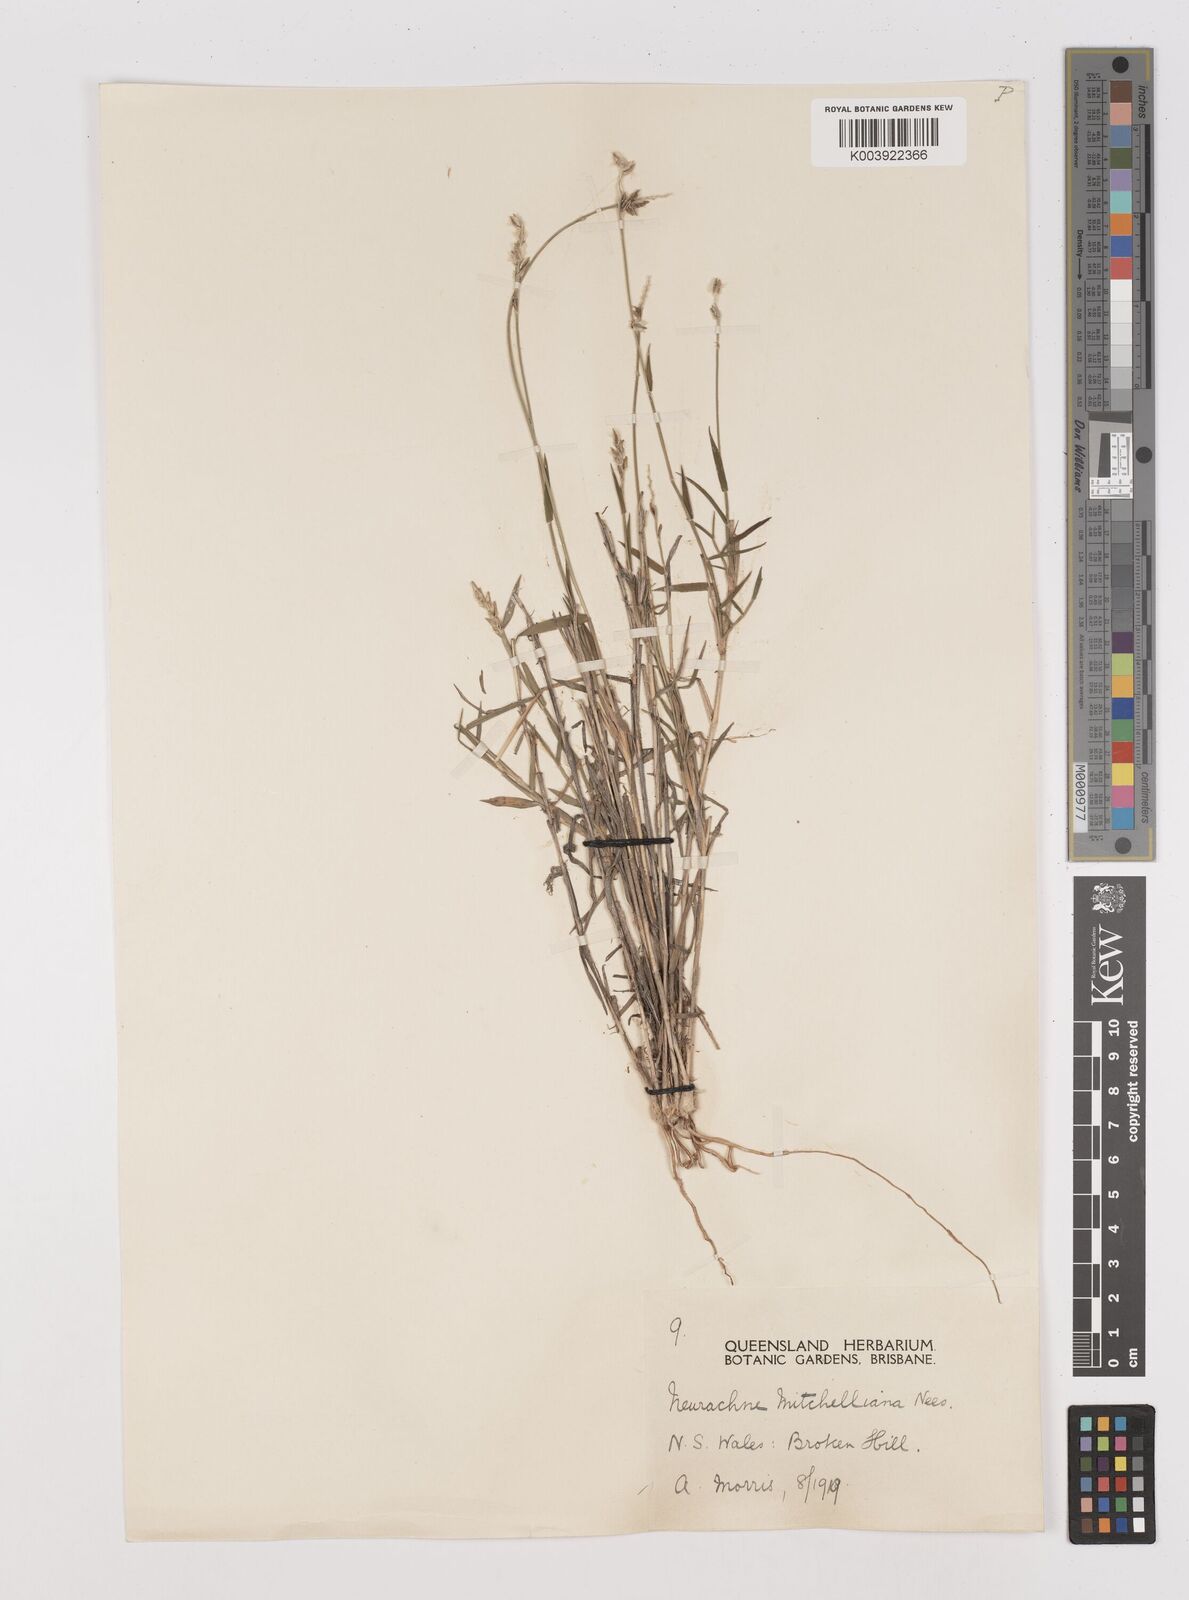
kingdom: Plantae
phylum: Tracheophyta
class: Liliopsida
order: Poales
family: Poaceae
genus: Thyridolepis
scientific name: Thyridolepis mitchelliana
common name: Rock tassel grass
